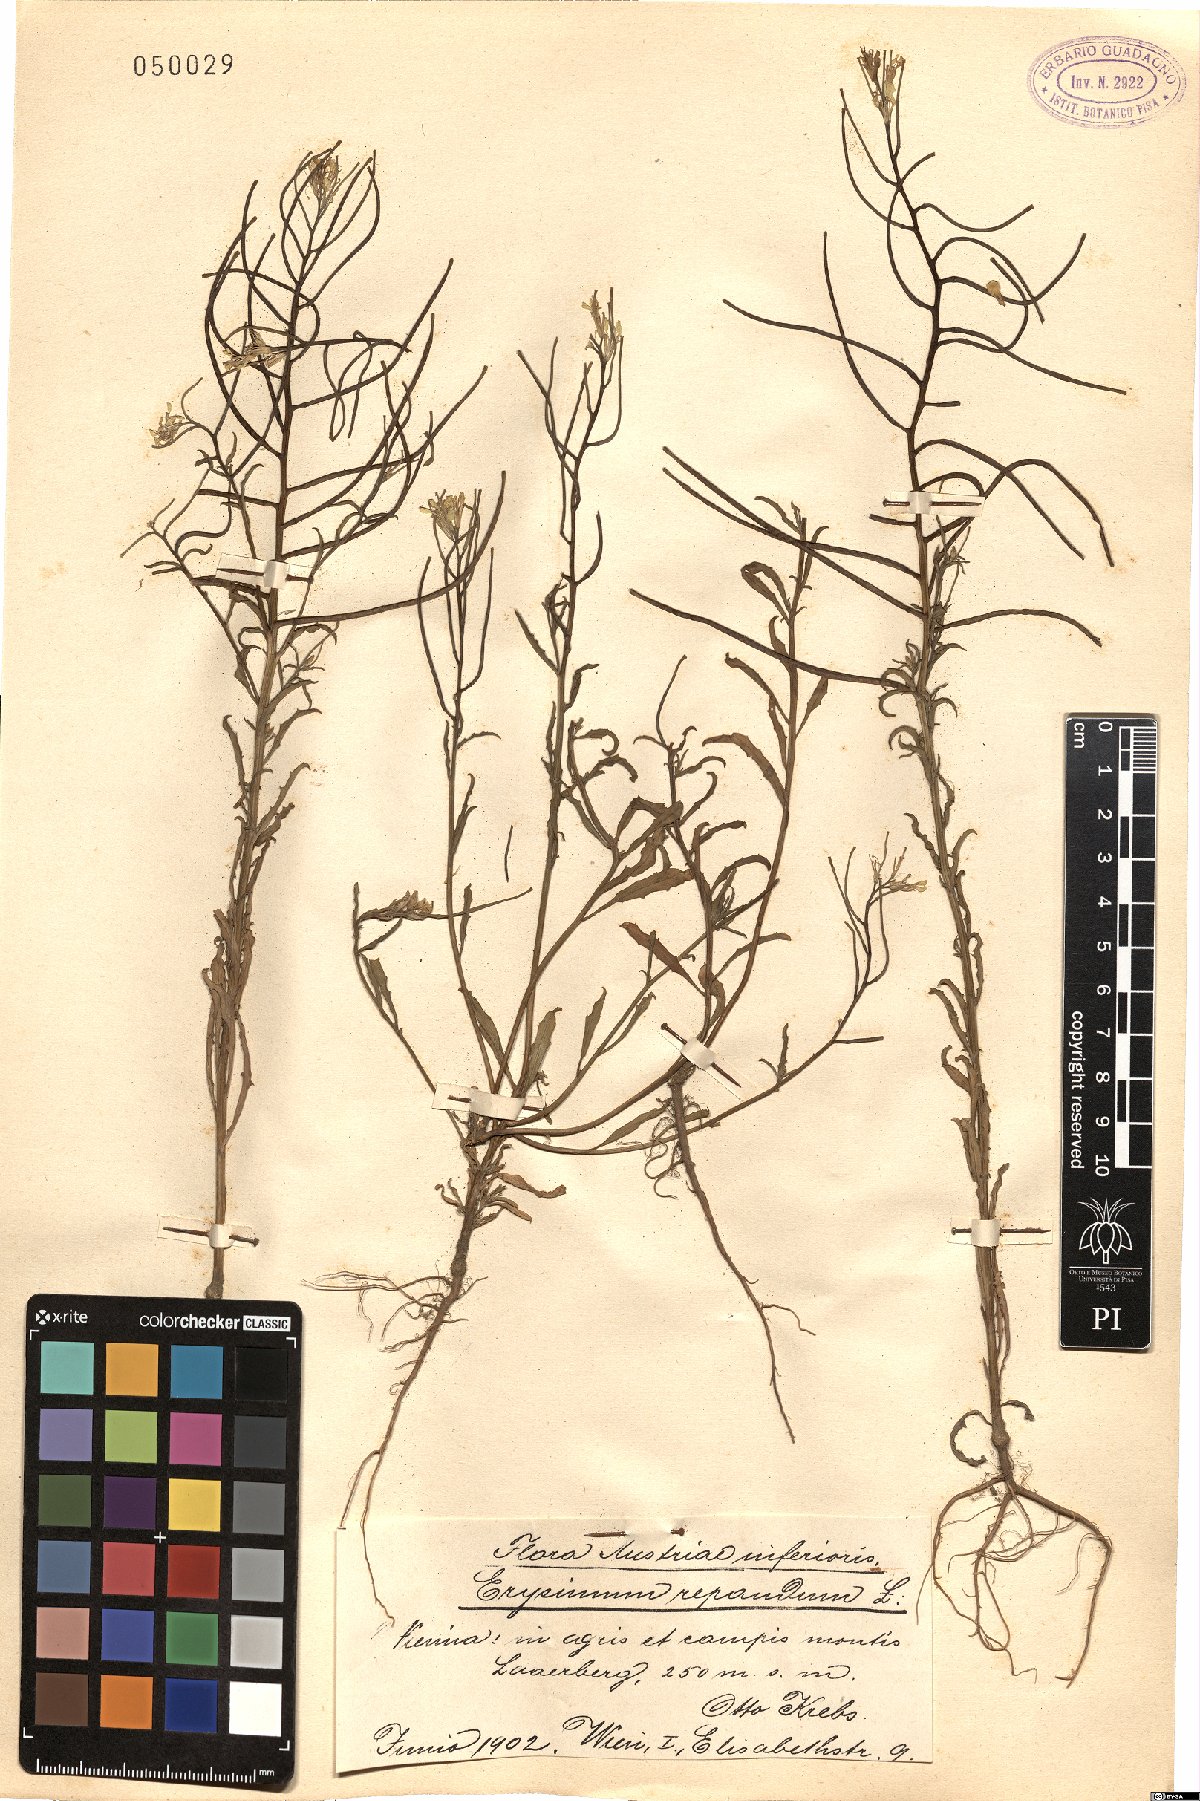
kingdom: Plantae
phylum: Tracheophyta
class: Magnoliopsida
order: Brassicales
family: Brassicaceae
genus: Erysimum
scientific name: Erysimum repandum
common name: Spreading wallflower
